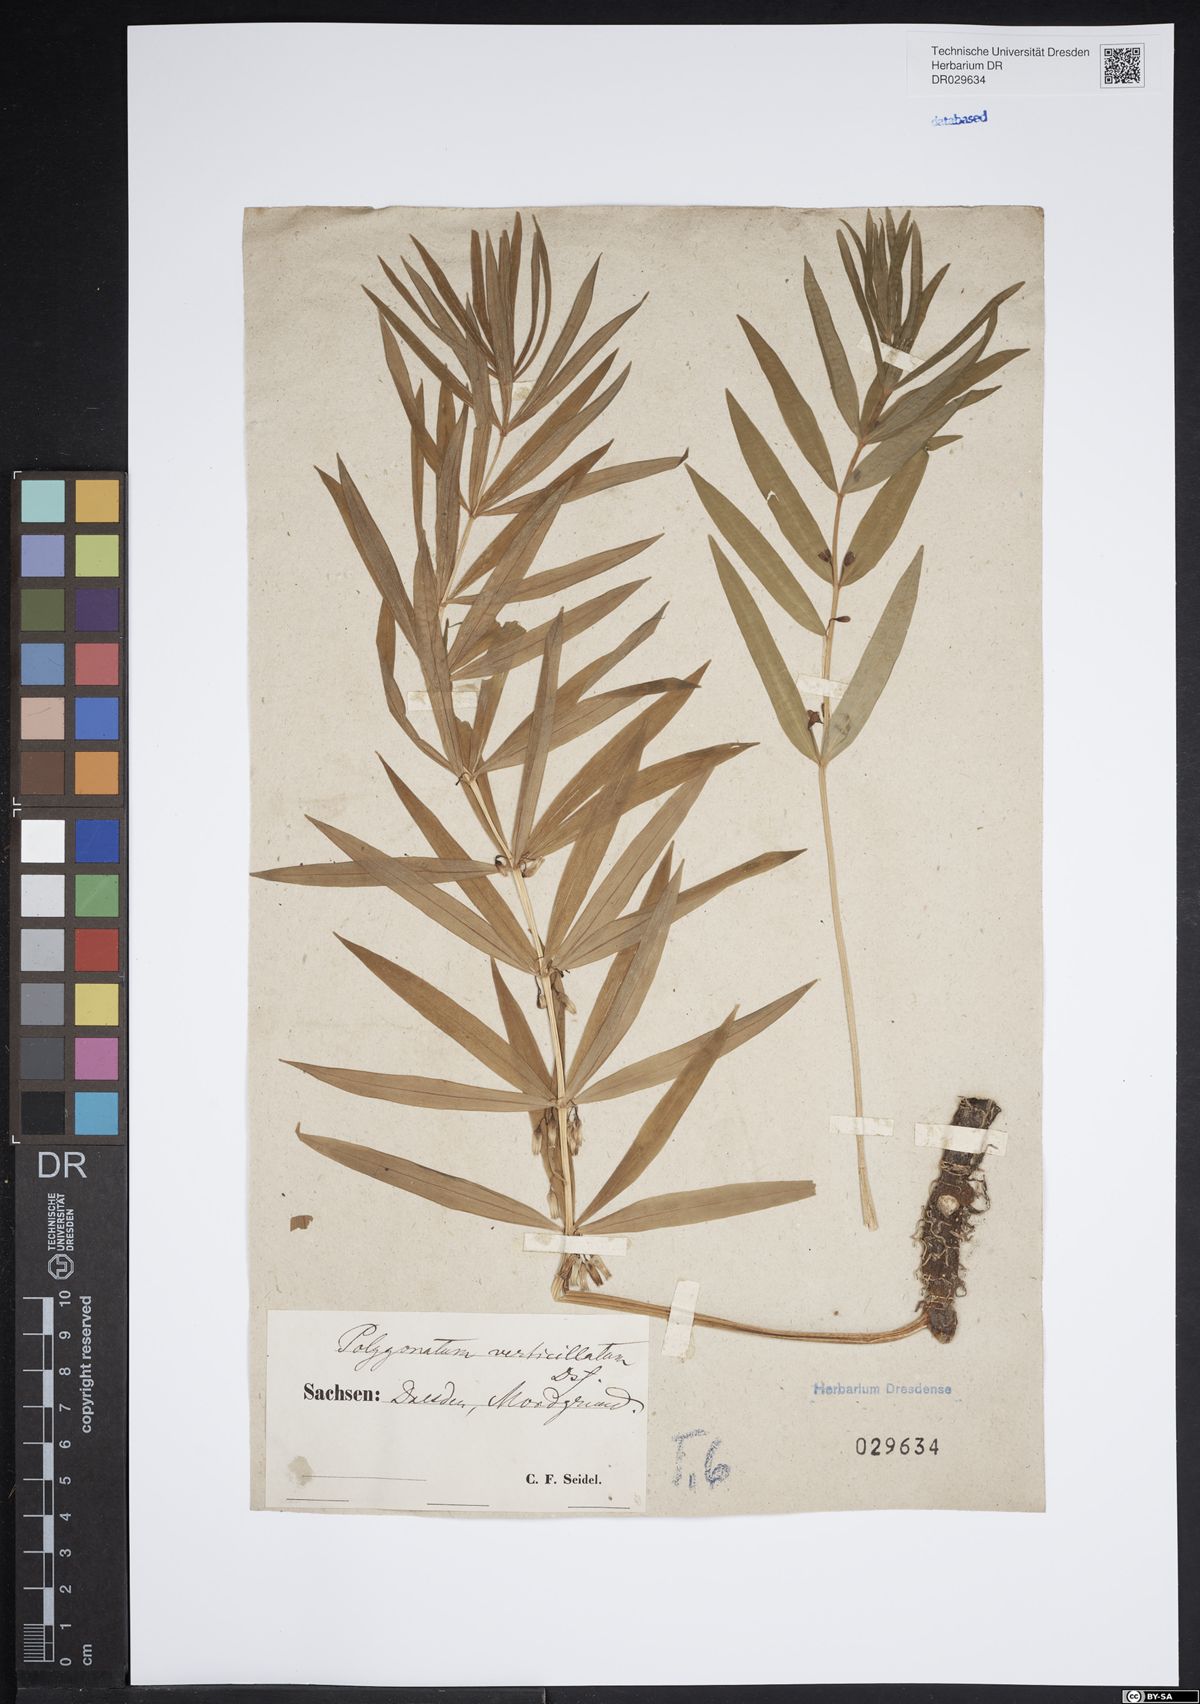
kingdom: Plantae
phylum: Tracheophyta
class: Liliopsida
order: Asparagales
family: Asparagaceae
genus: Polygonatum
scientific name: Polygonatum verticillatum
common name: Whorled solomon's-seal
